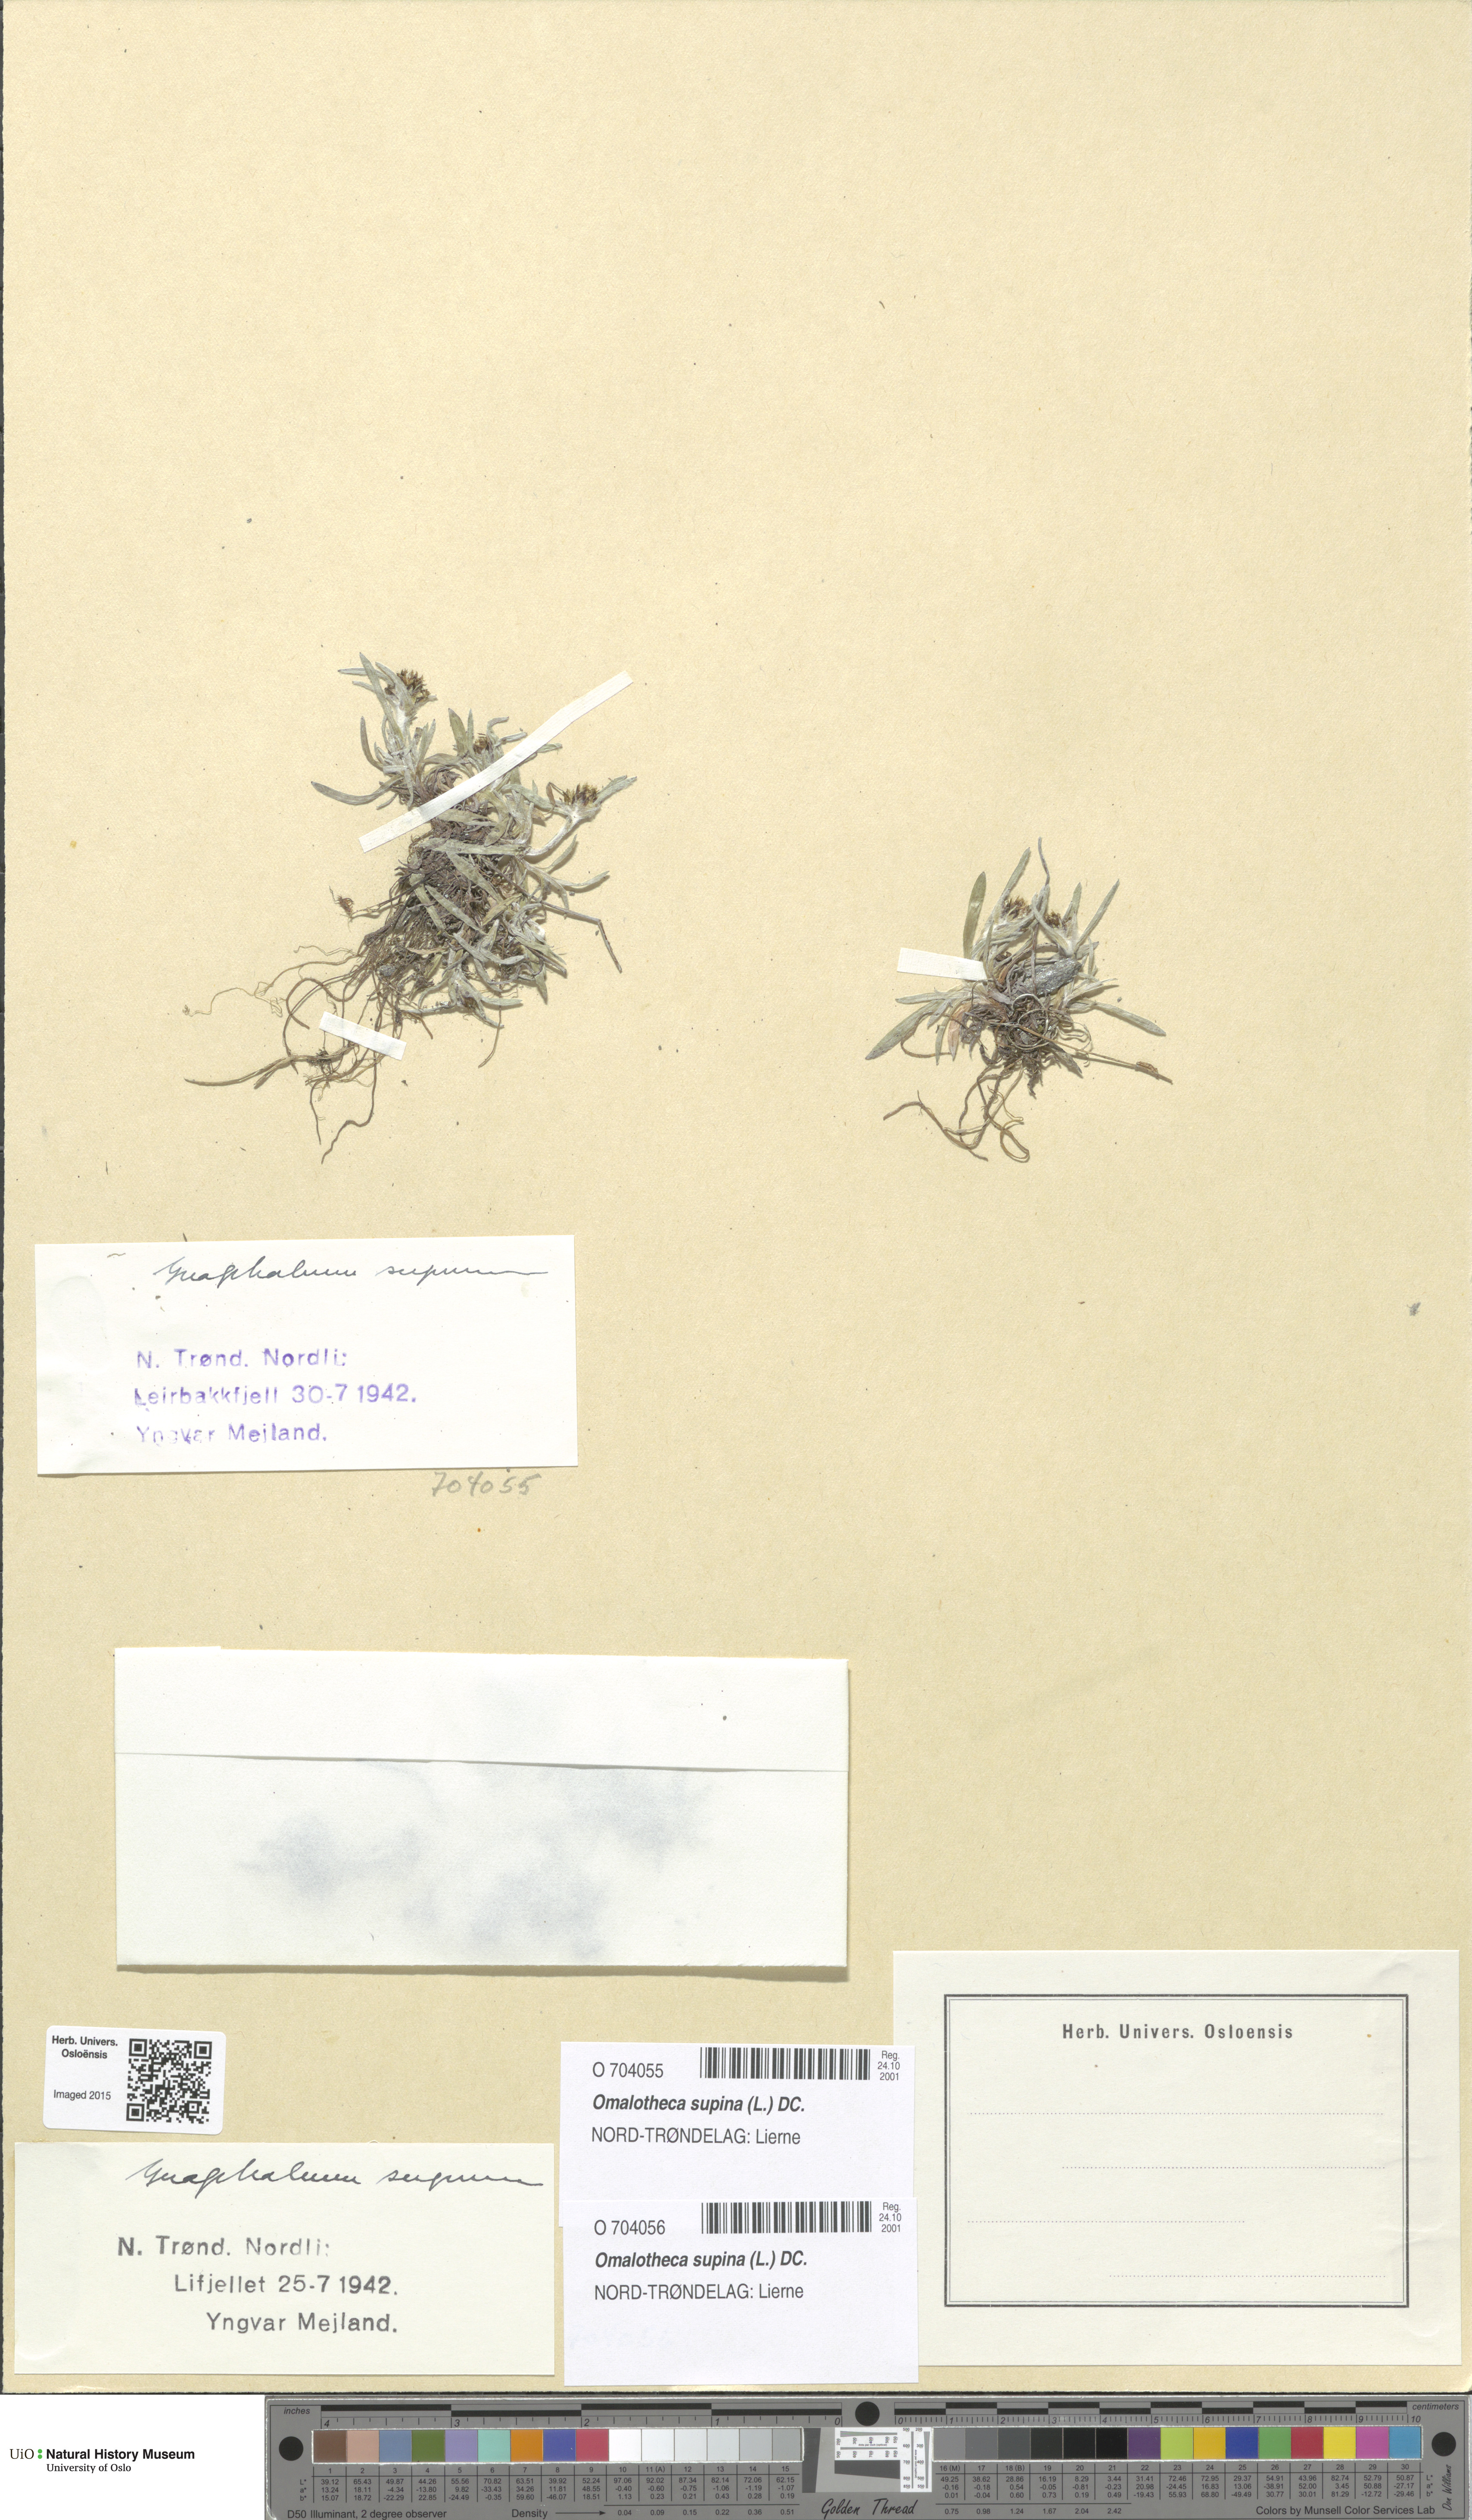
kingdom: Plantae
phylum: Tracheophyta
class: Magnoliopsida
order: Asterales
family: Asteraceae
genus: Omalotheca
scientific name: Omalotheca supina
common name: Alpine arctic-cudweed
